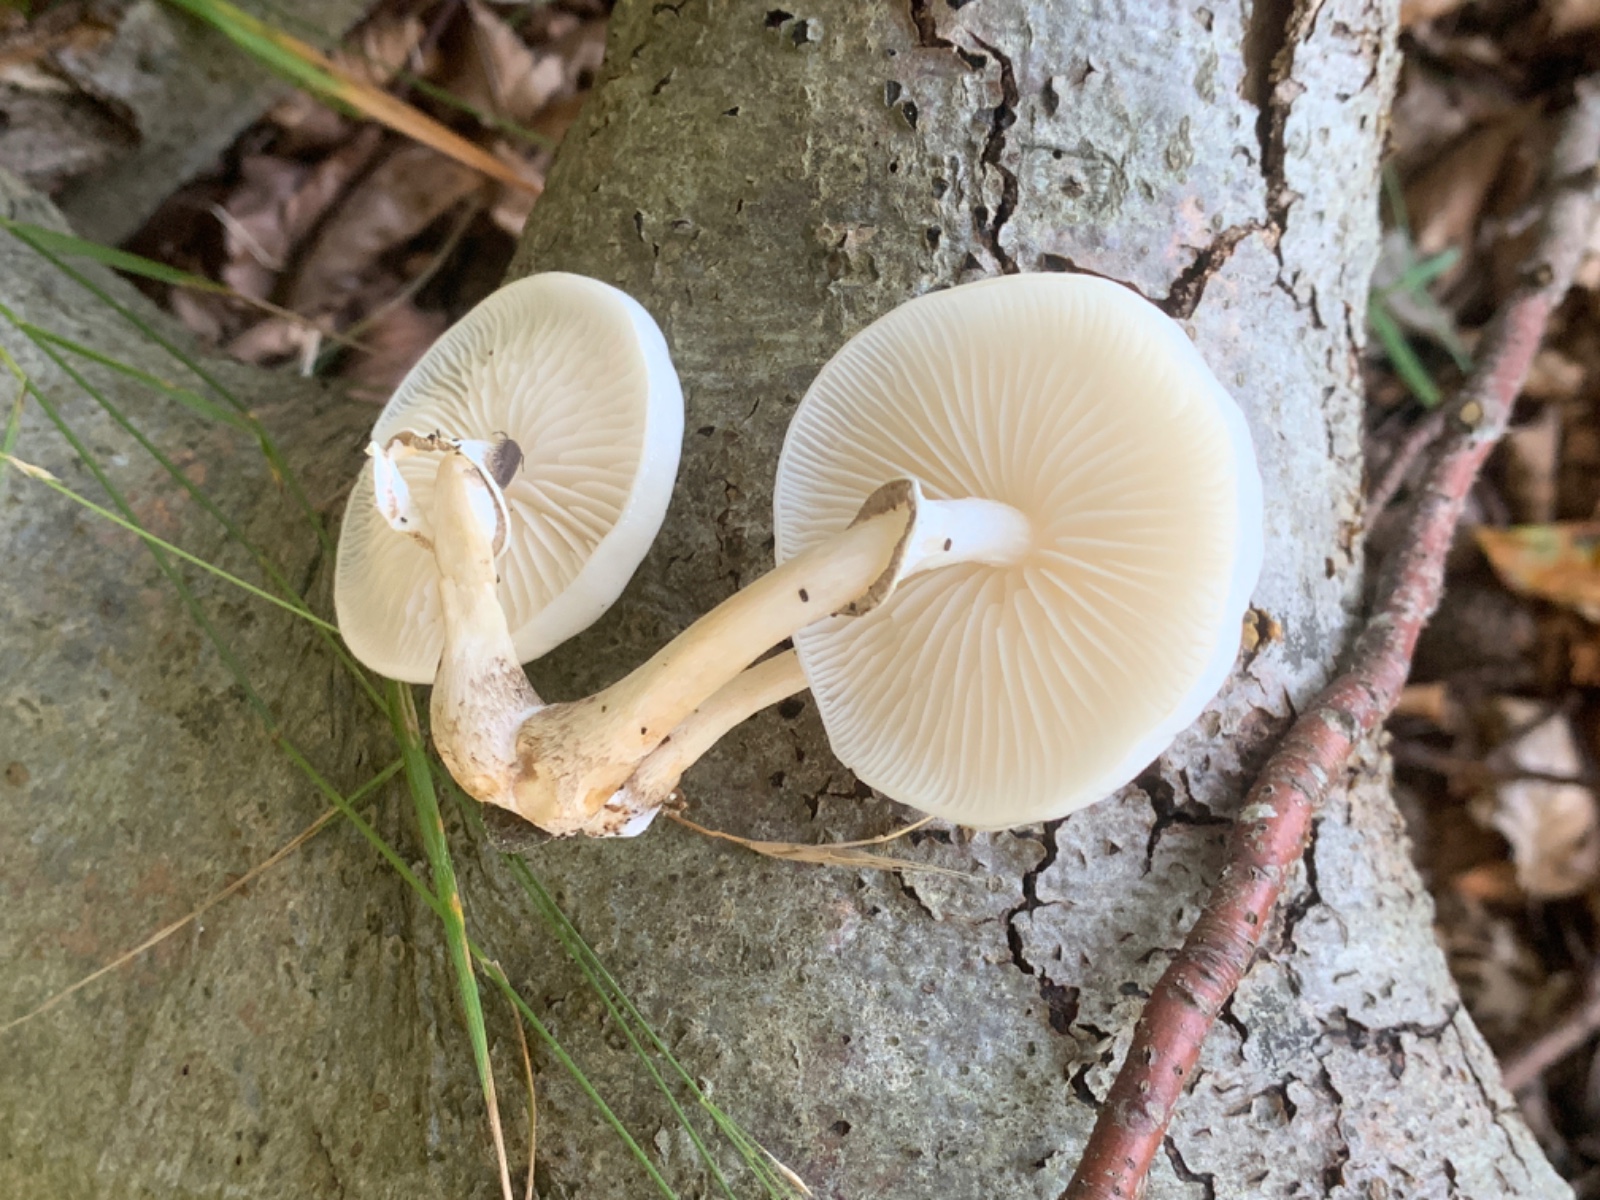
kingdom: Fungi
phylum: Basidiomycota
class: Agaricomycetes
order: Agaricales
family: Physalacriaceae
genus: Mucidula
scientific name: Mucidula mucida
